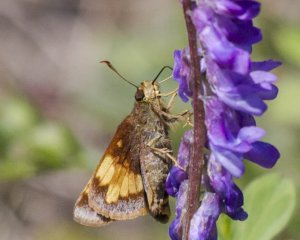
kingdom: Animalia
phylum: Arthropoda
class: Insecta
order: Lepidoptera
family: Hesperiidae
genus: Lon
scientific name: Lon hobomok
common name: Hobomok Skipper
